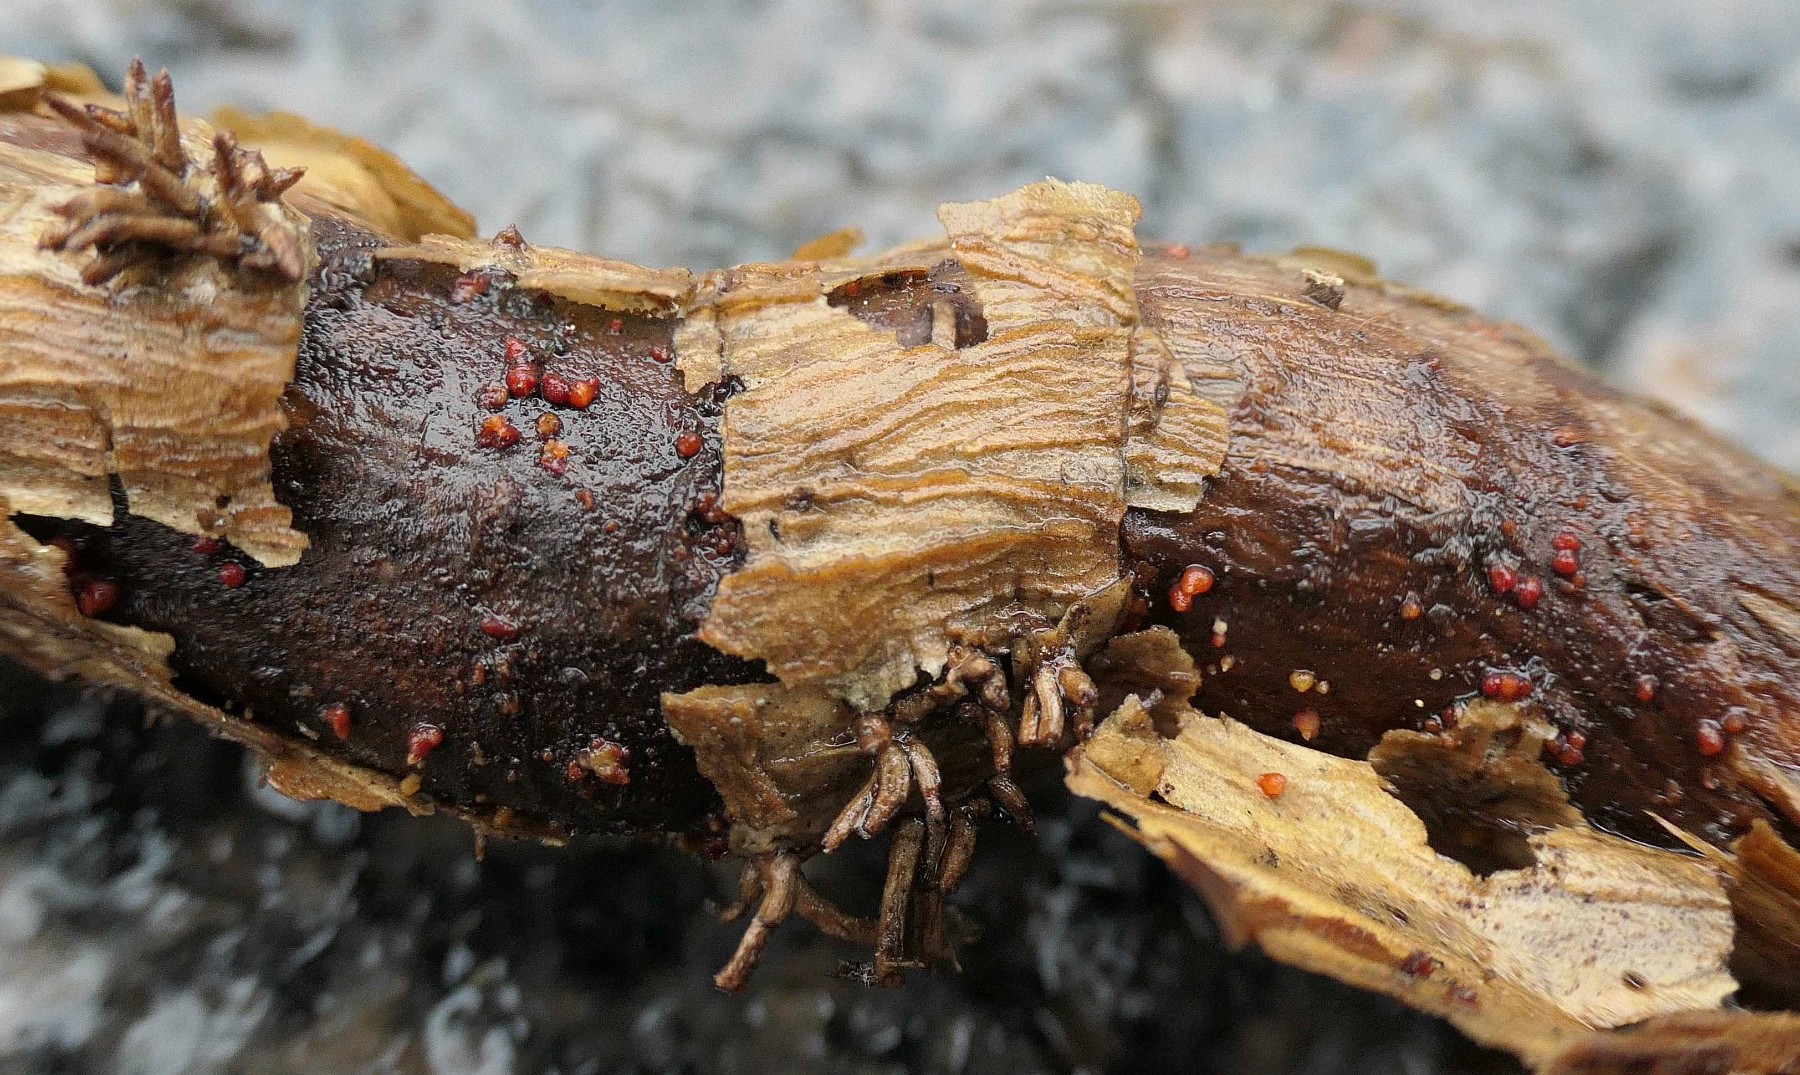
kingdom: Fungi
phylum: Ascomycota
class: Sordariomycetes
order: Hypocreales
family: Nectriaceae
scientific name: Nectriaceae
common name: cinnobersvampfamilien
